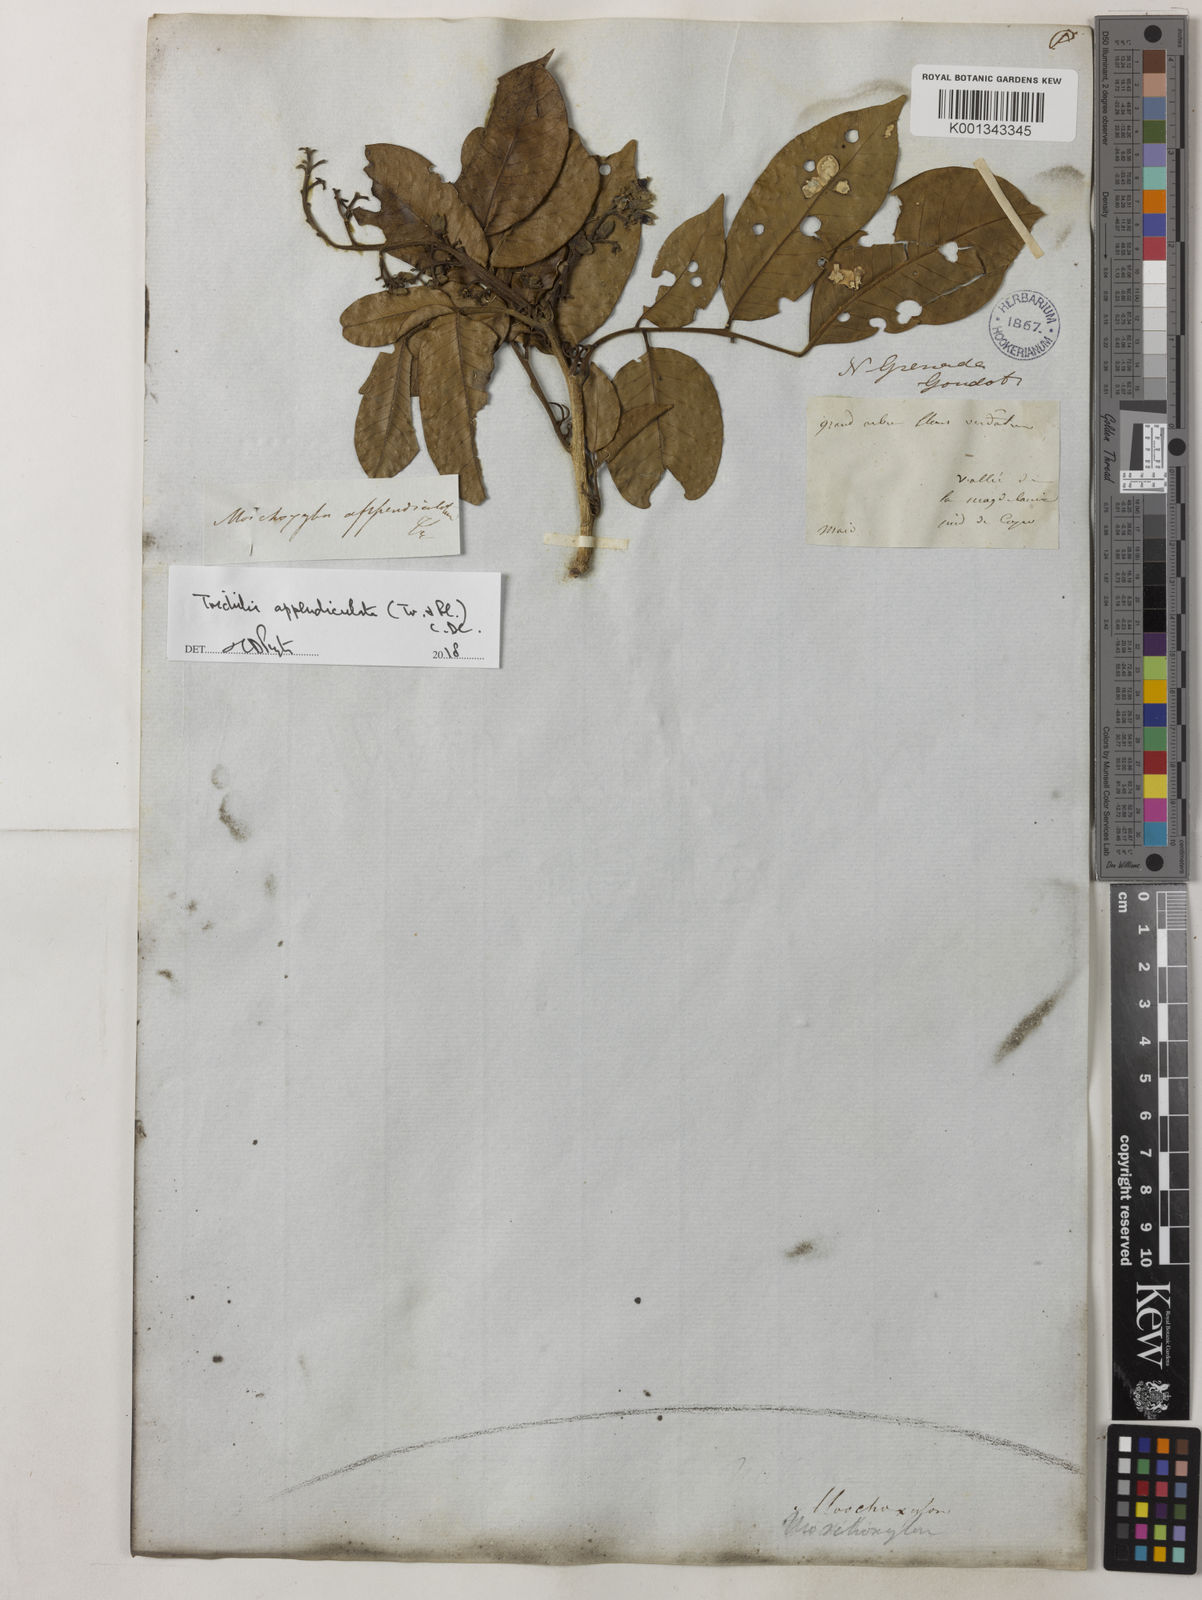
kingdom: Plantae
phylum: Tracheophyta
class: Magnoliopsida
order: Sapindales
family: Meliaceae
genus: Trichilia
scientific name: Trichilia appendiculata
